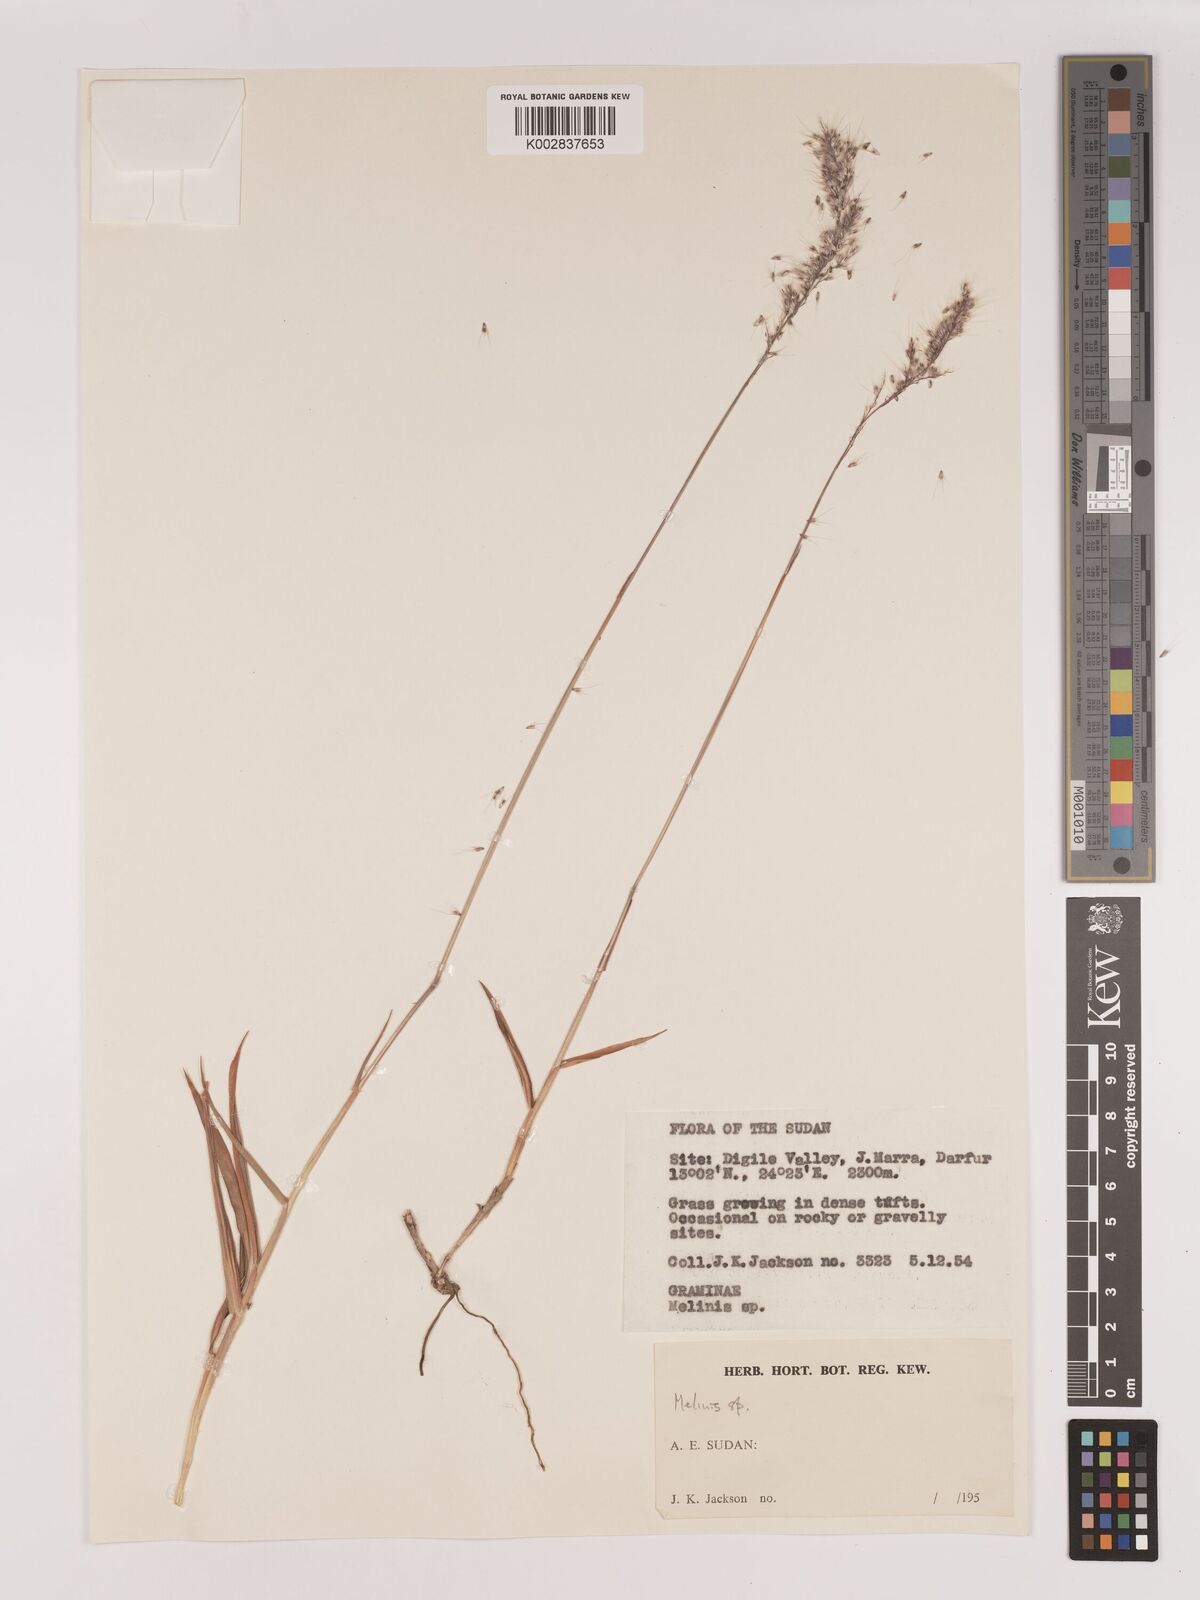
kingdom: Plantae
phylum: Tracheophyta
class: Liliopsida
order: Poales
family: Poaceae
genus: Melinis
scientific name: Melinis longiseta
